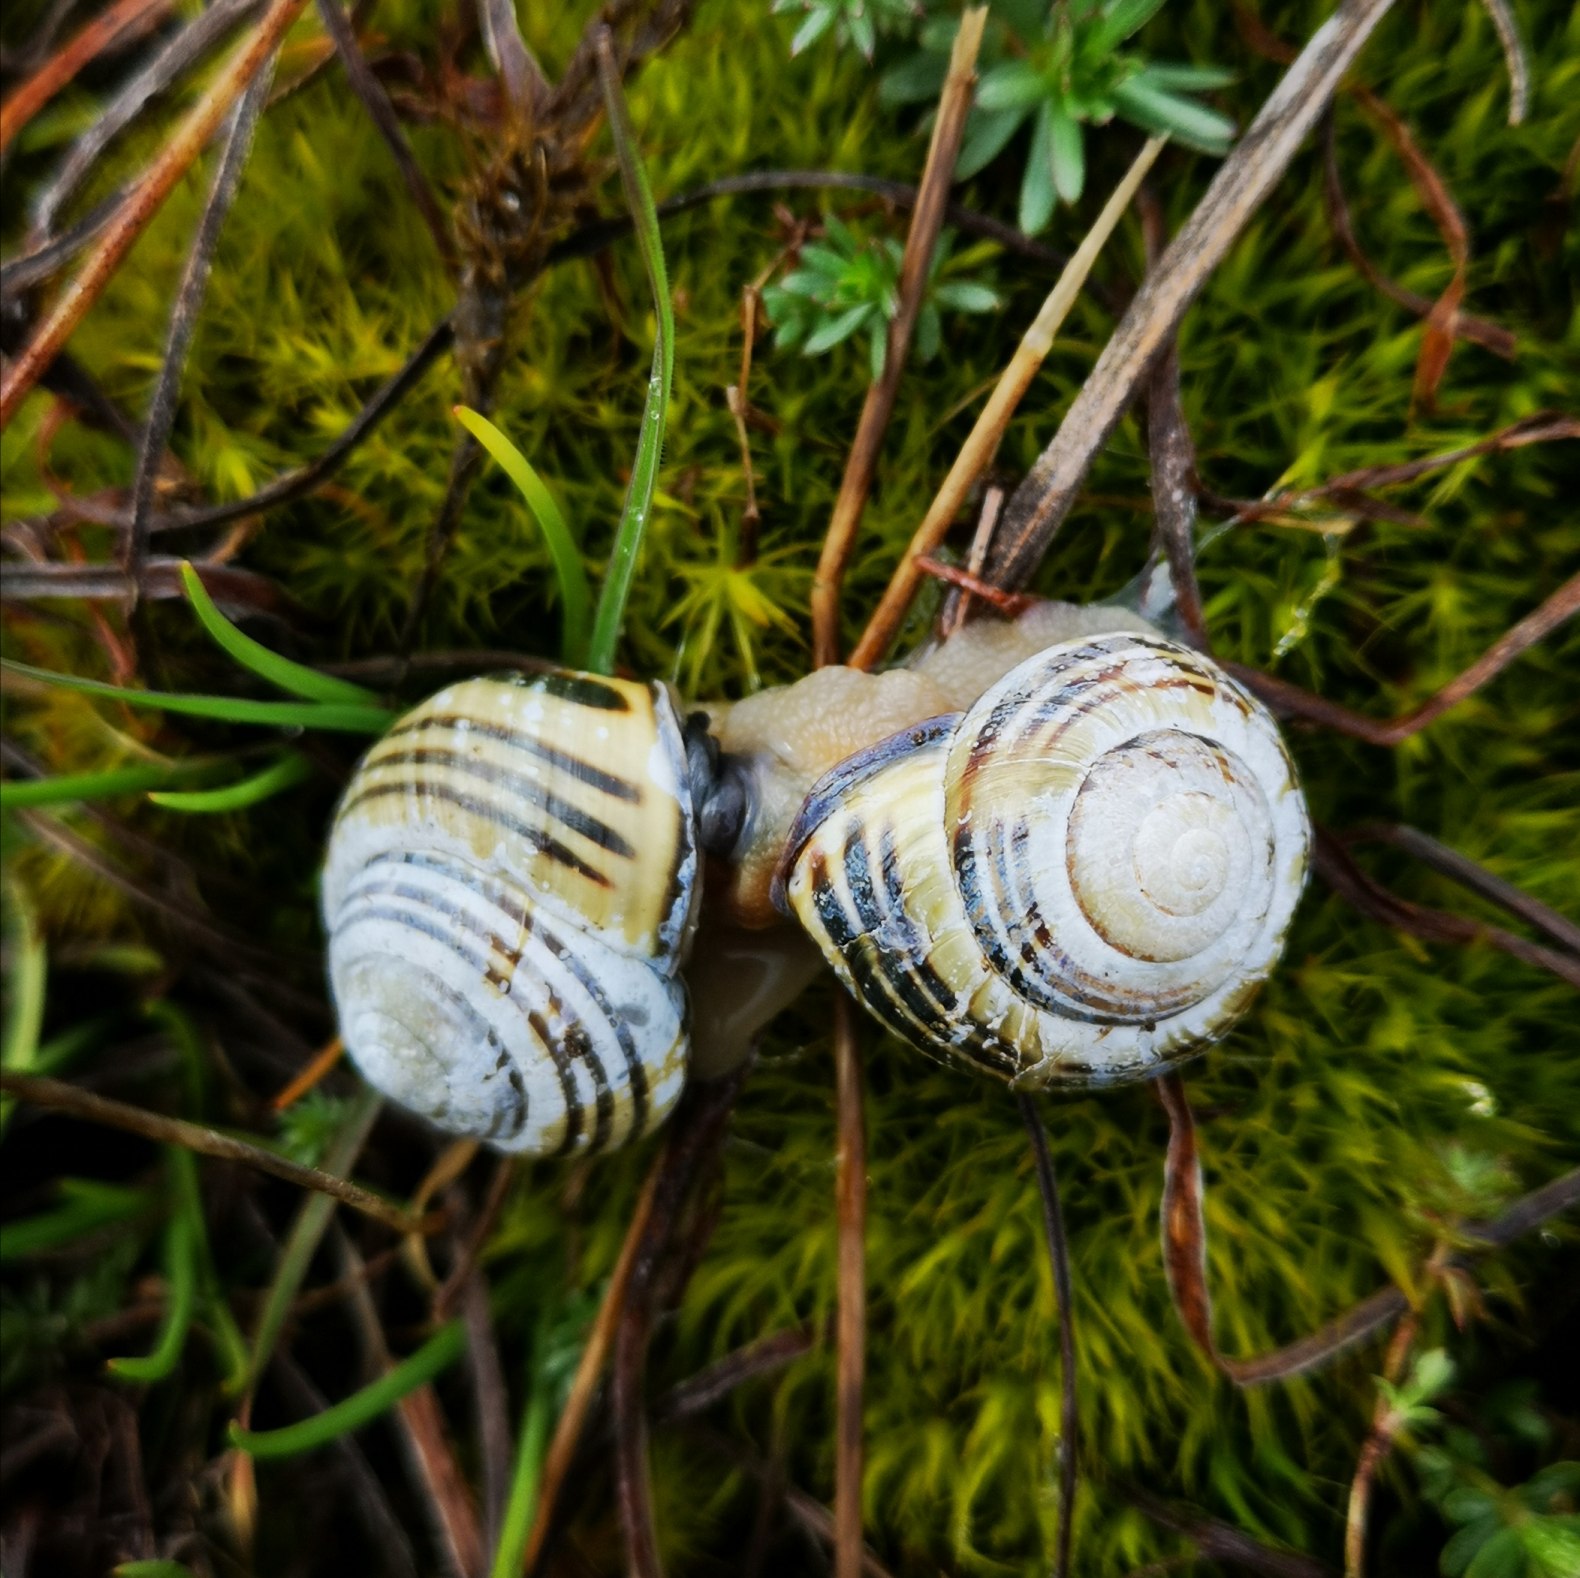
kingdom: Animalia
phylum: Mollusca
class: Gastropoda
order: Stylommatophora
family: Helicidae
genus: Cepaea
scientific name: Cepaea nemoralis
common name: Lundsnegl
